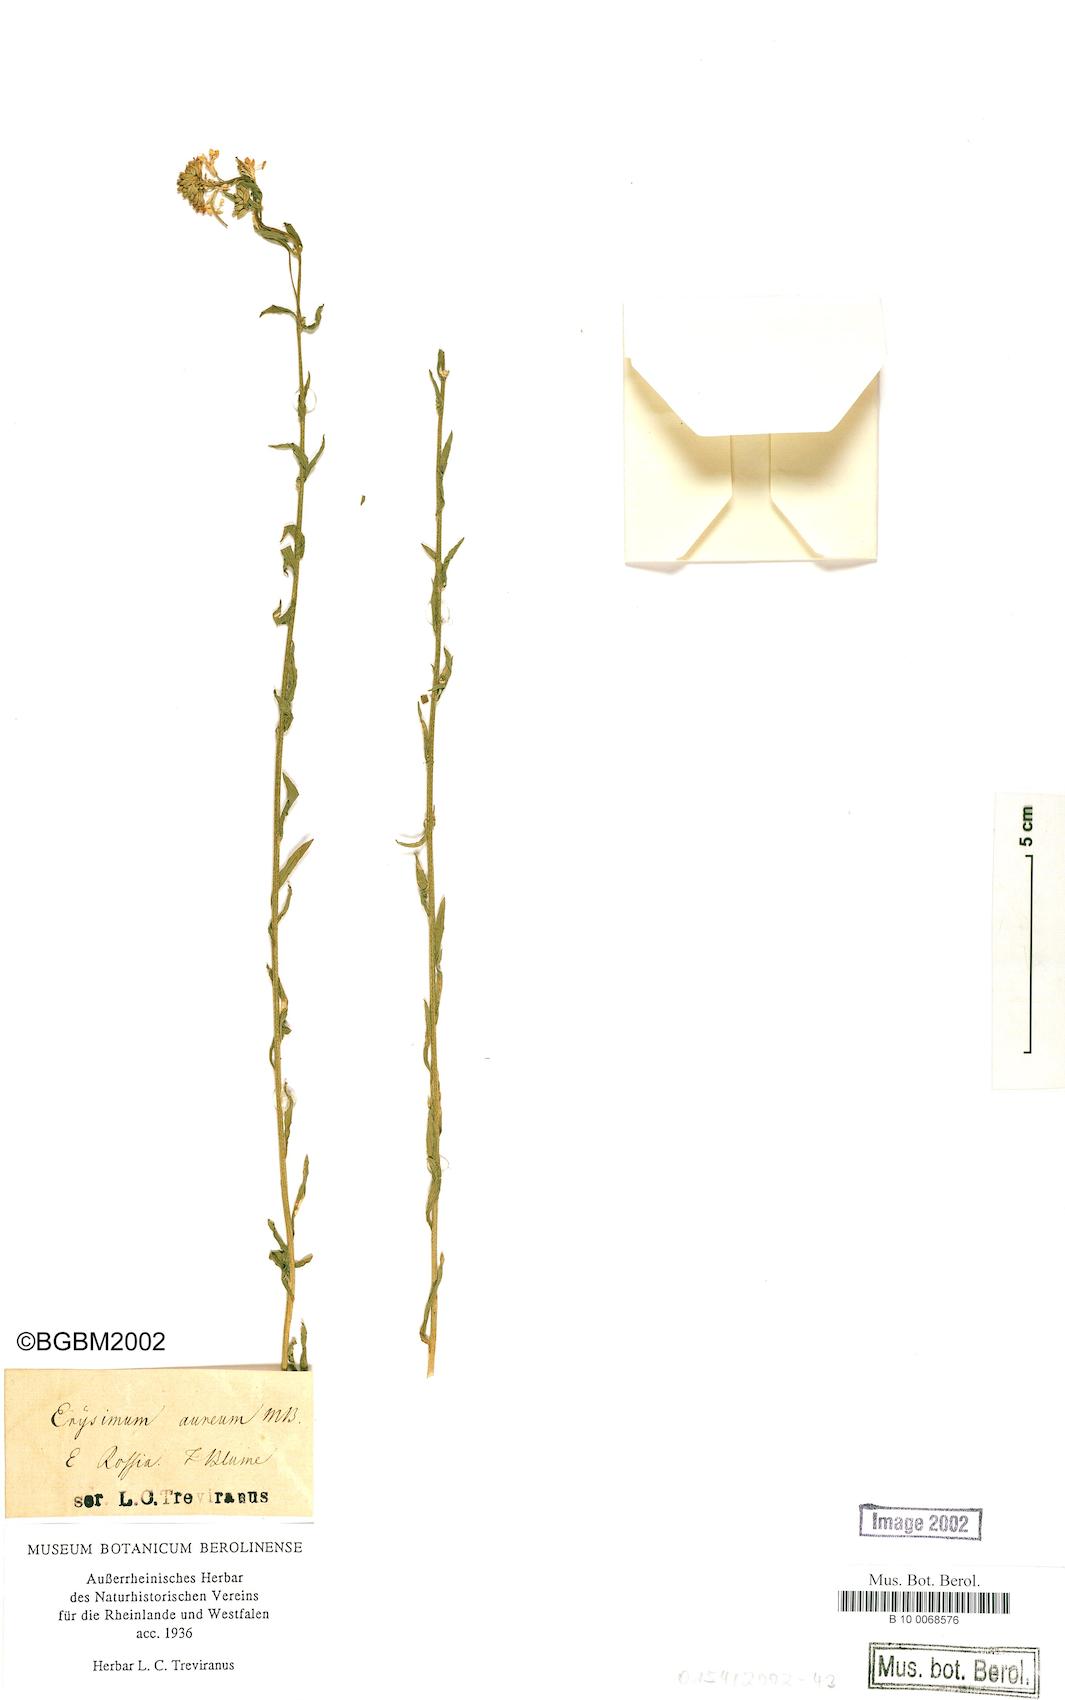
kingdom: Plantae
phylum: Tracheophyta
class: Magnoliopsida
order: Brassicales
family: Brassicaceae
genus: Erysimum
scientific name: Erysimum aureum
